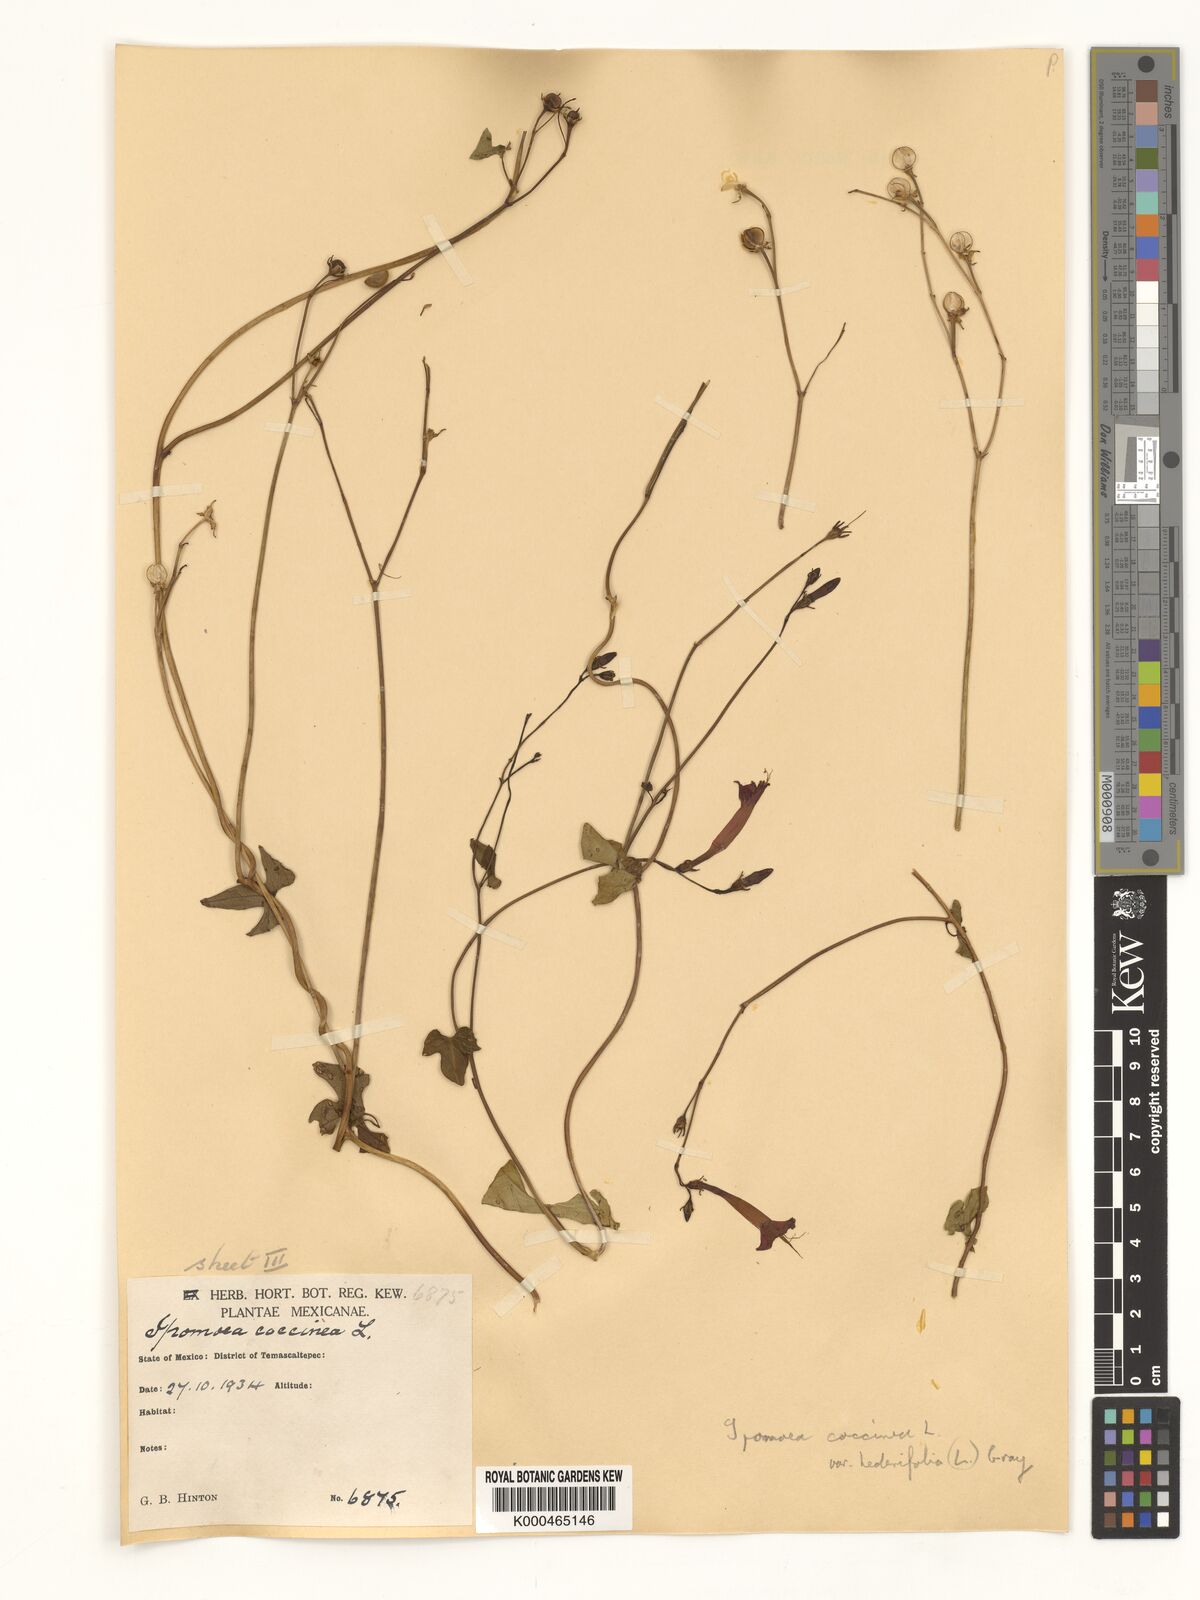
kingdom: Plantae
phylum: Tracheophyta
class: Magnoliopsida
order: Solanales
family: Convolvulaceae
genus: Ipomoea
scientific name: Ipomoea hederifolia
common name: Ivy-leaf morning-glory
